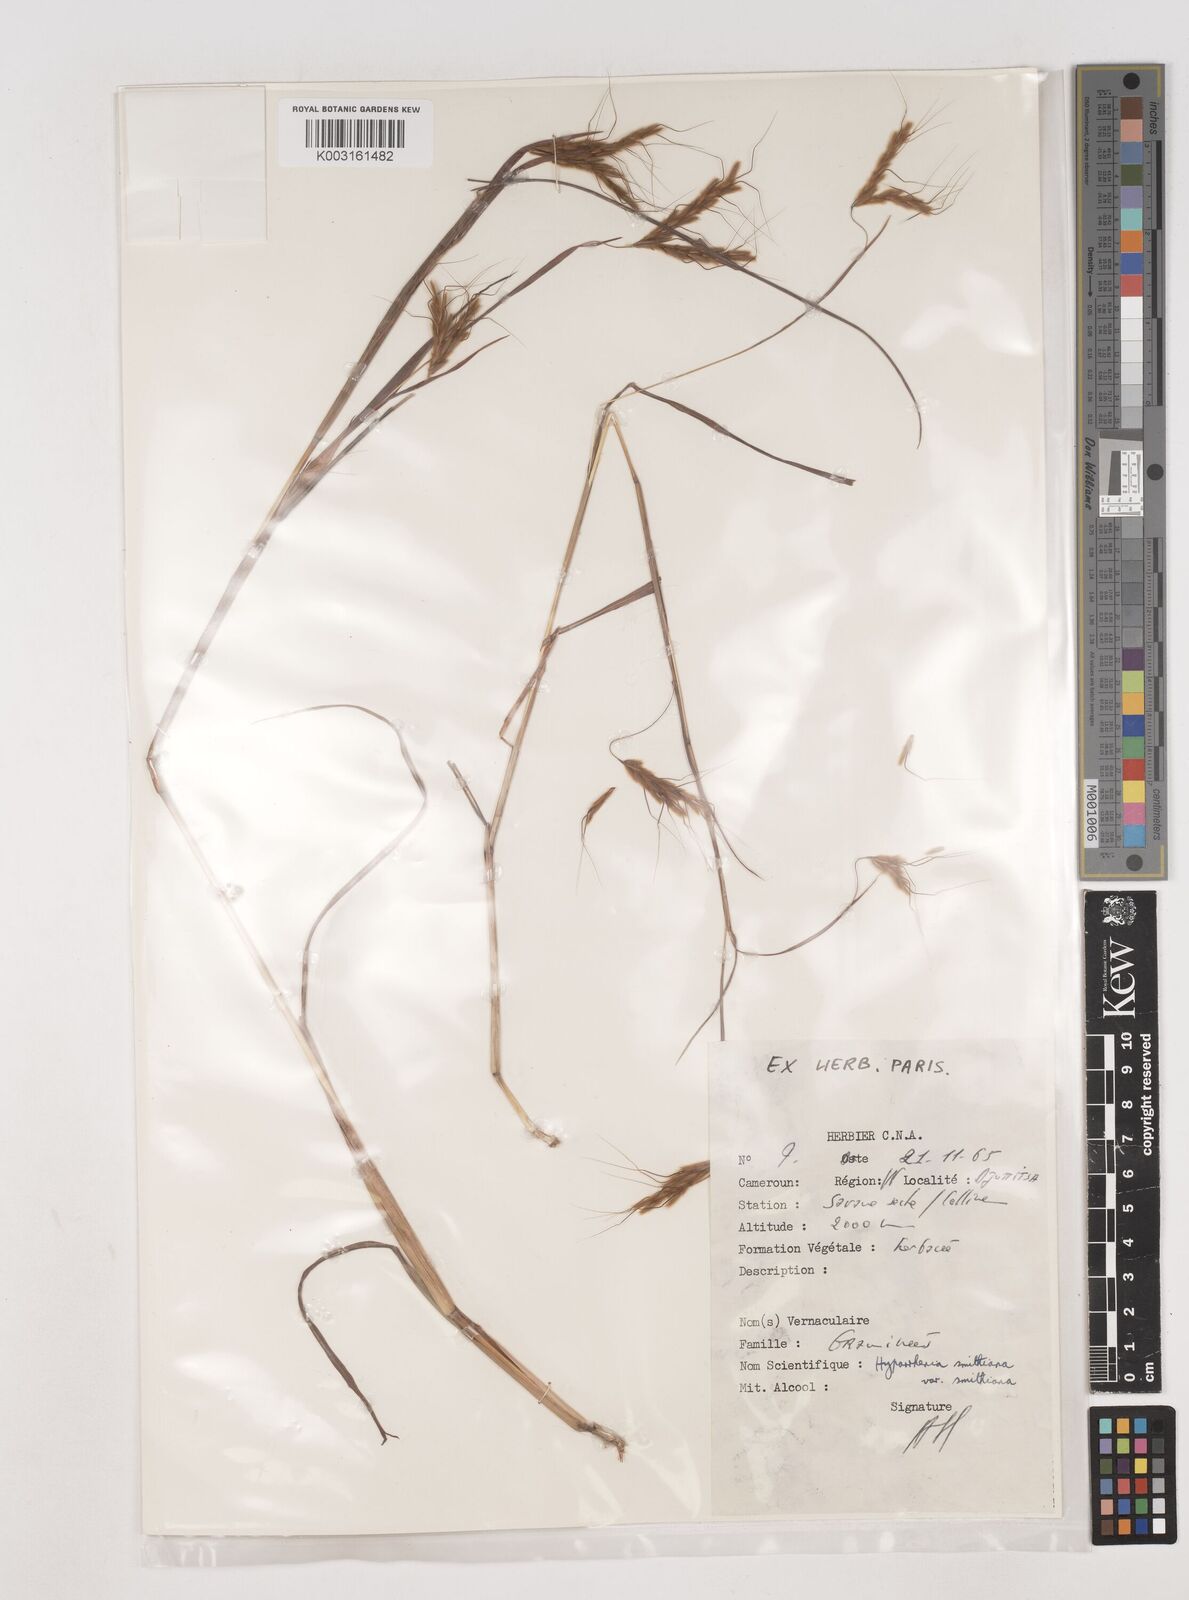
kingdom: Plantae
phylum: Tracheophyta
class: Liliopsida
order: Poales
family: Poaceae
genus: Hyparrhenia
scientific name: Hyparrhenia smithiana
